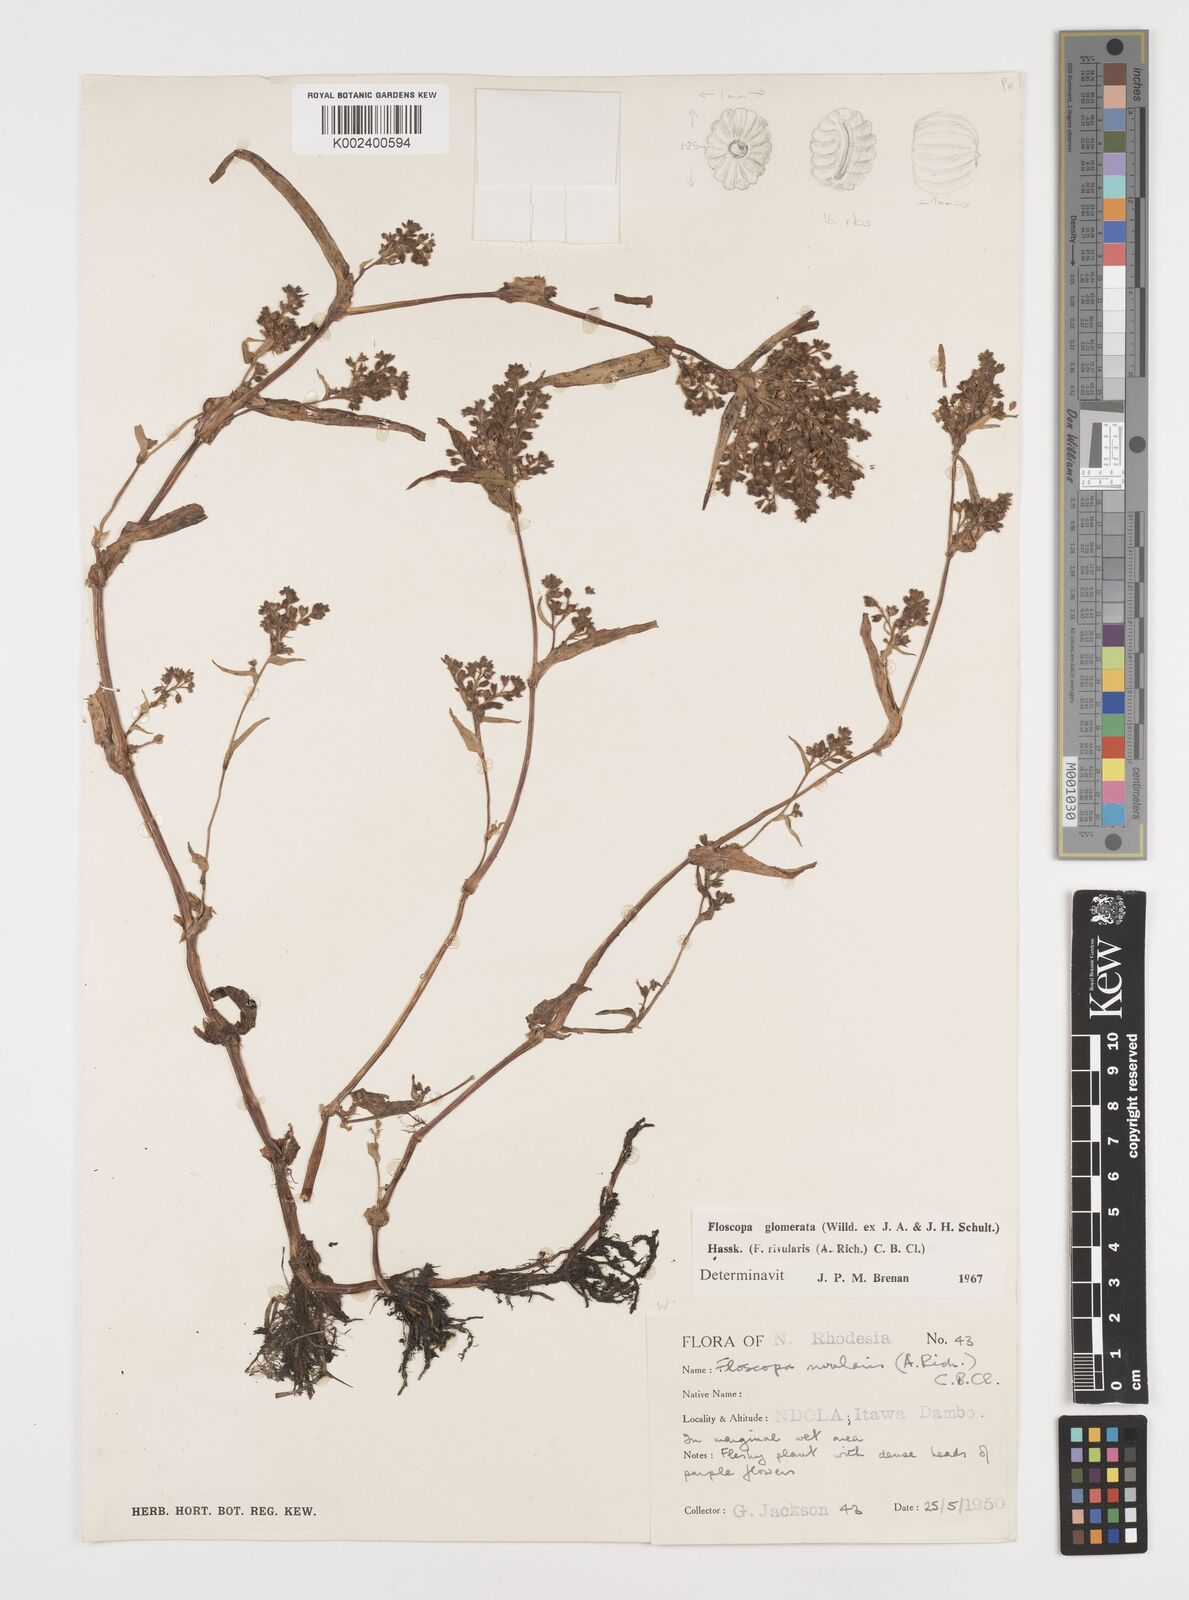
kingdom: Plantae
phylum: Tracheophyta
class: Liliopsida
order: Commelinales
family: Commelinaceae
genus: Floscopa
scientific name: Floscopa glomerata
